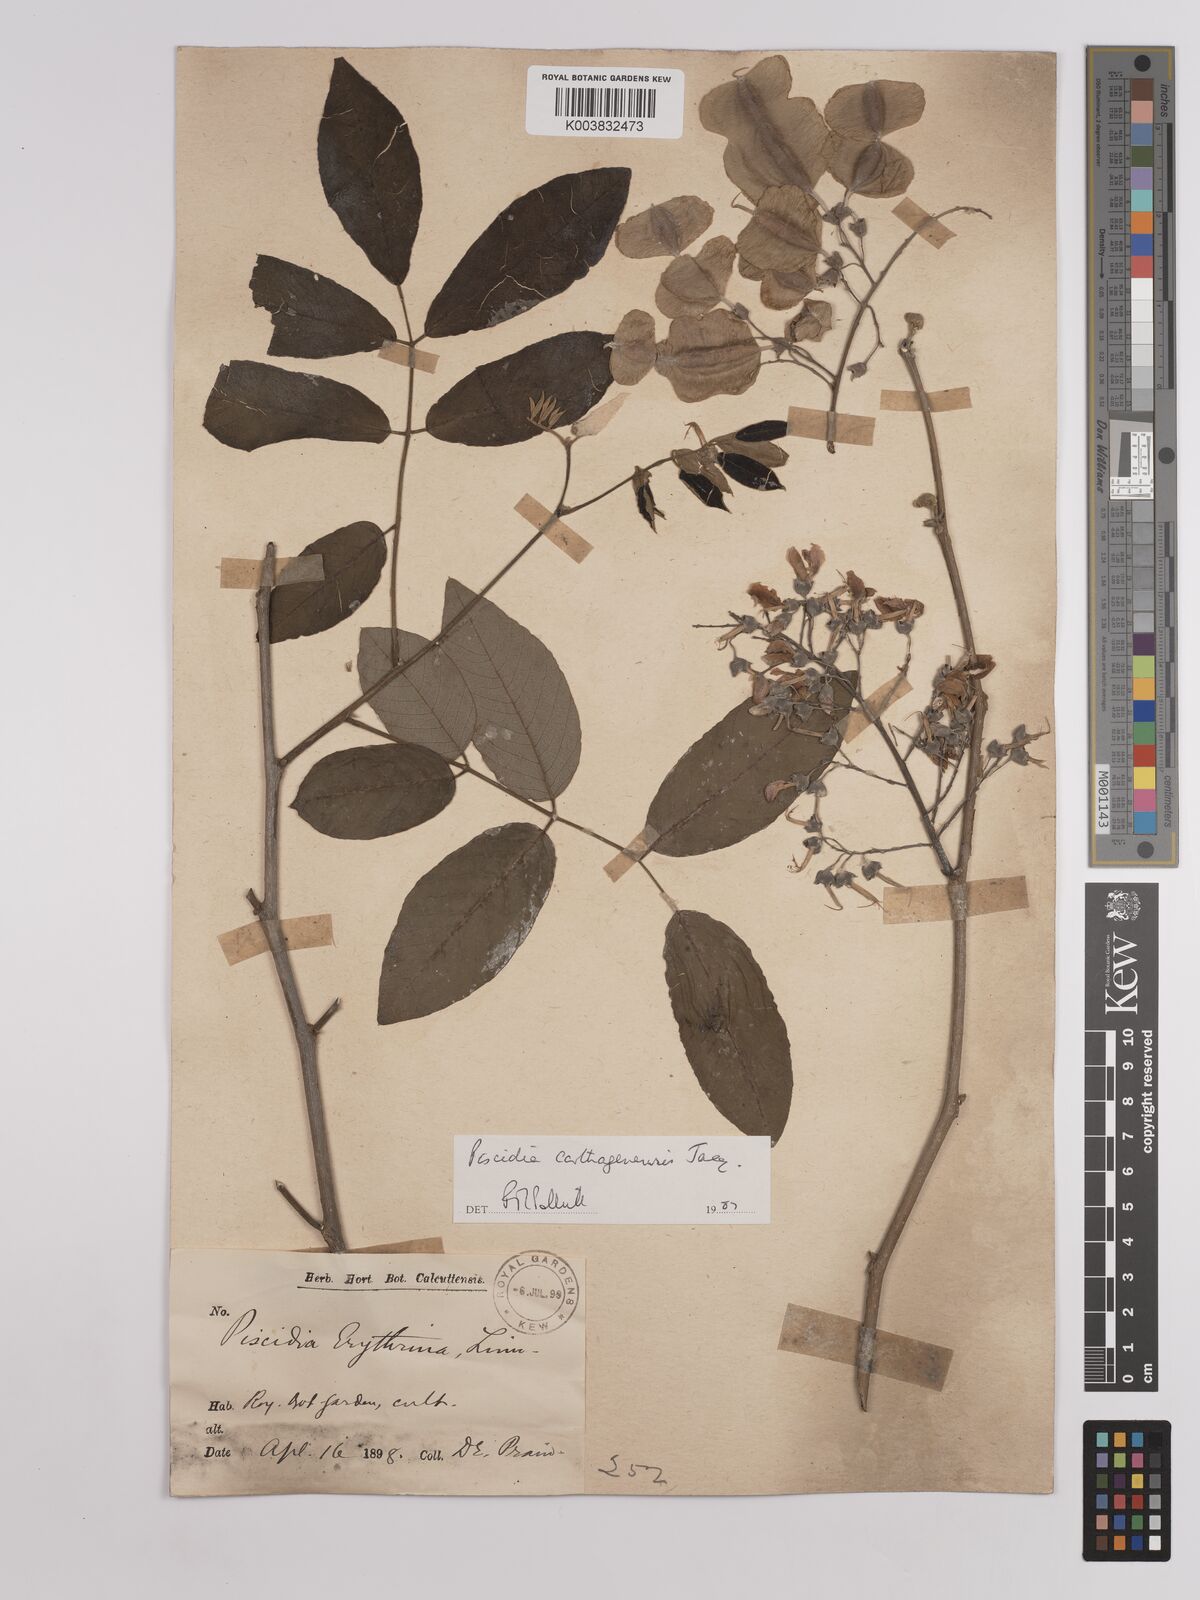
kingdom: Plantae
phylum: Tracheophyta
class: Magnoliopsida
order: Fabales
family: Fabaceae
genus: Piscidia
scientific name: Piscidia carthagenensis
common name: Stinkwood
